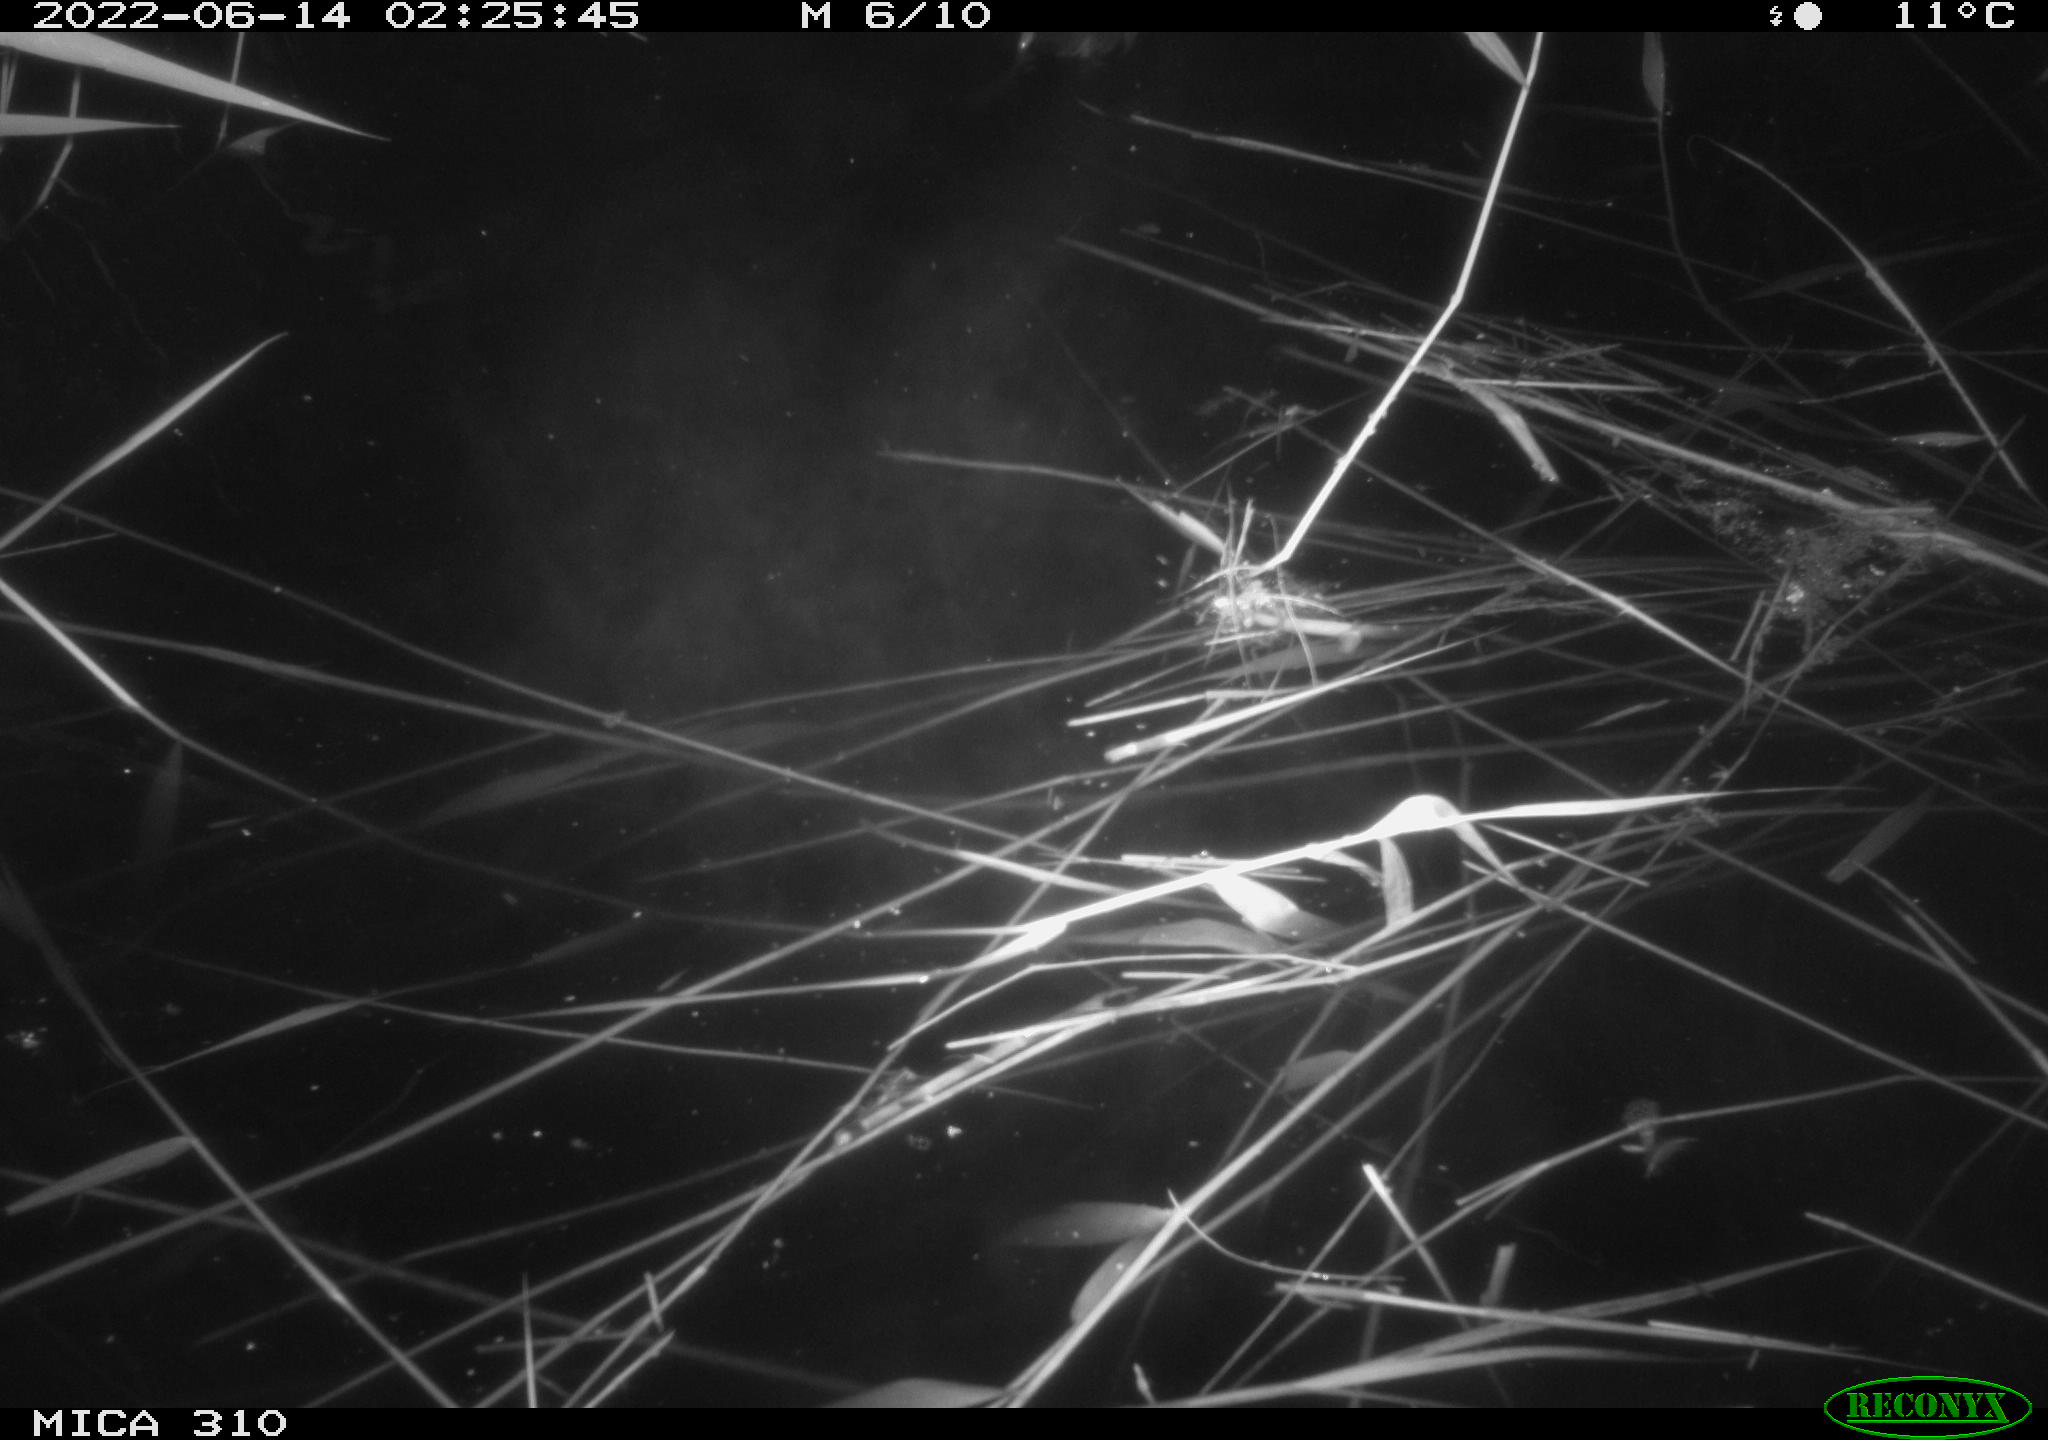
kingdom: Animalia
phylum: Chordata
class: Aves
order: Gruiformes
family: Rallidae
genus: Fulica
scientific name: Fulica atra
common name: Eurasian coot
